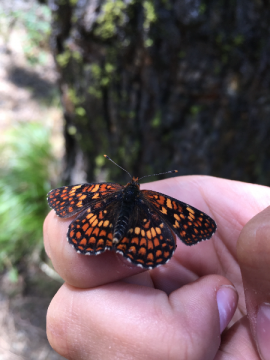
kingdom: Animalia
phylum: Arthropoda
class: Insecta
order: Lepidoptera
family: Nymphalidae
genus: Chlosyne
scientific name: Chlosyne palla
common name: Northern Checkerspot
